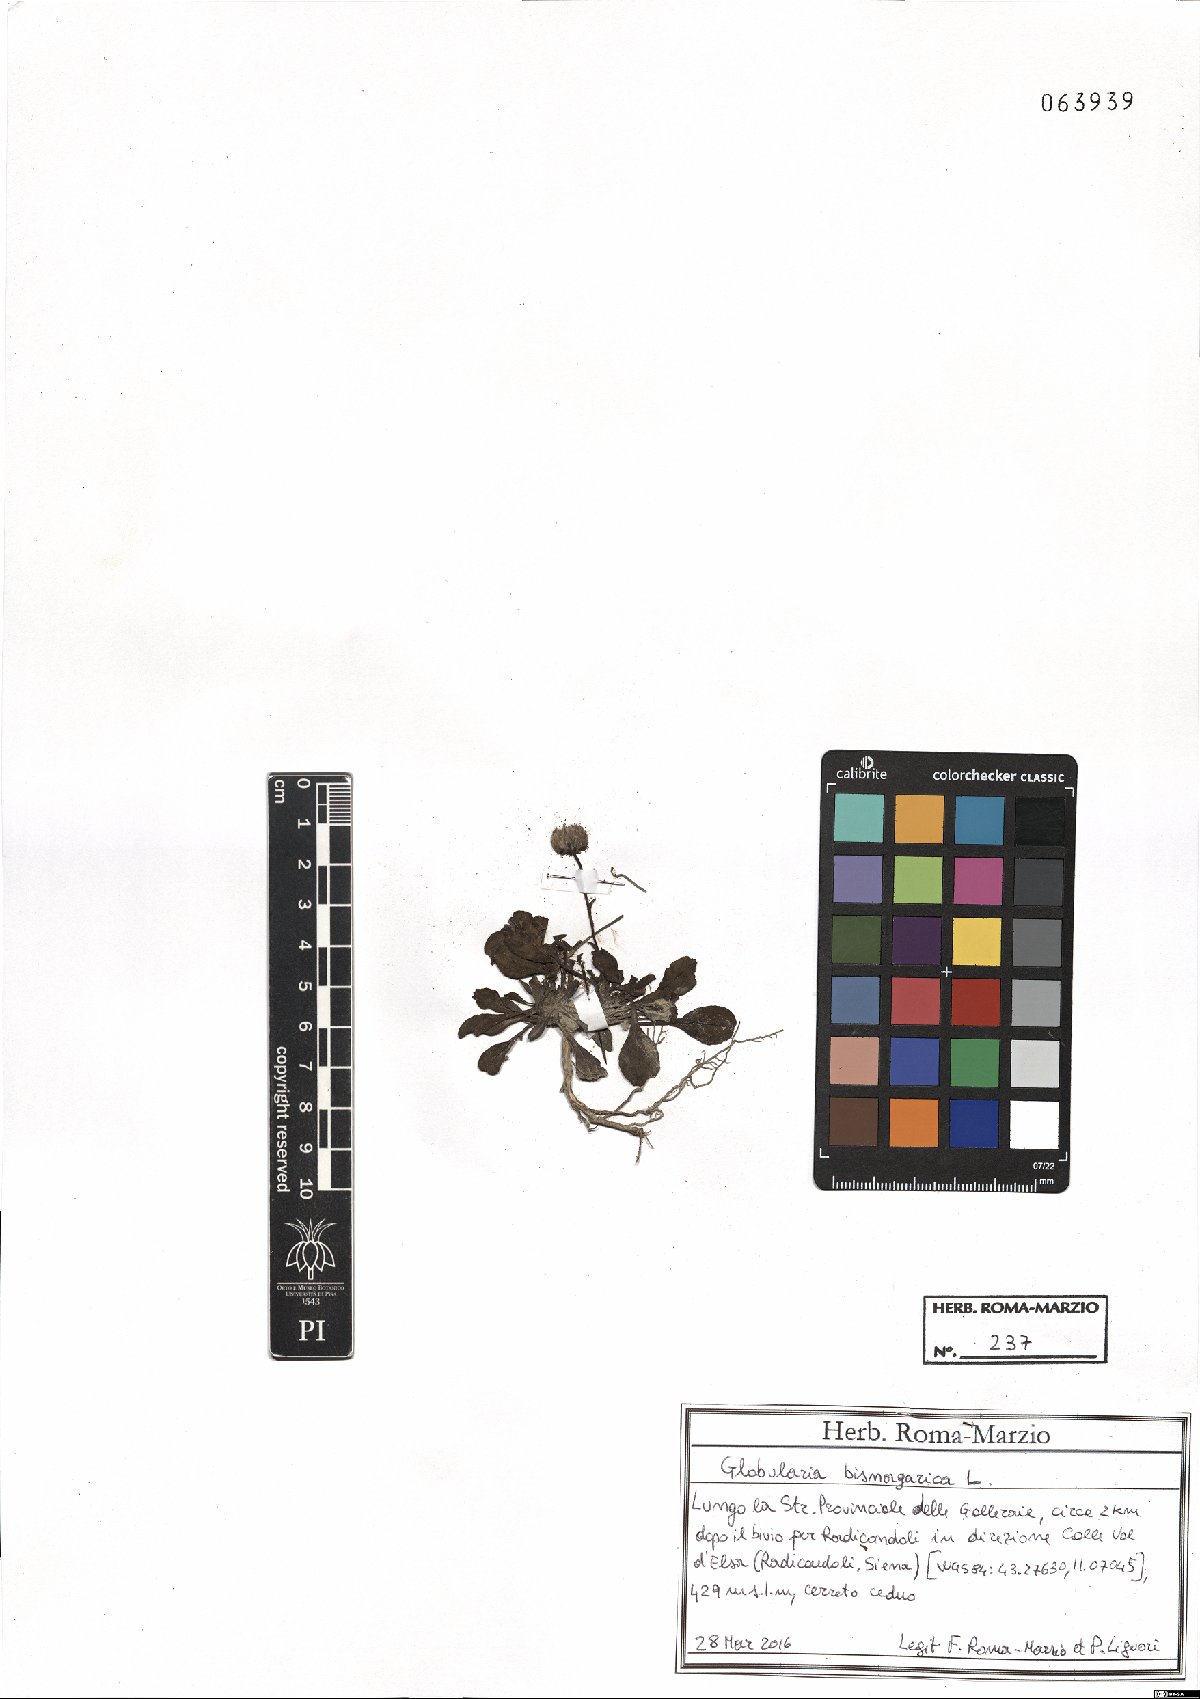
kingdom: Plantae
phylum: Tracheophyta
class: Magnoliopsida
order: Lamiales
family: Plantaginaceae
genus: Globularia
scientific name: Globularia bisnagarica
